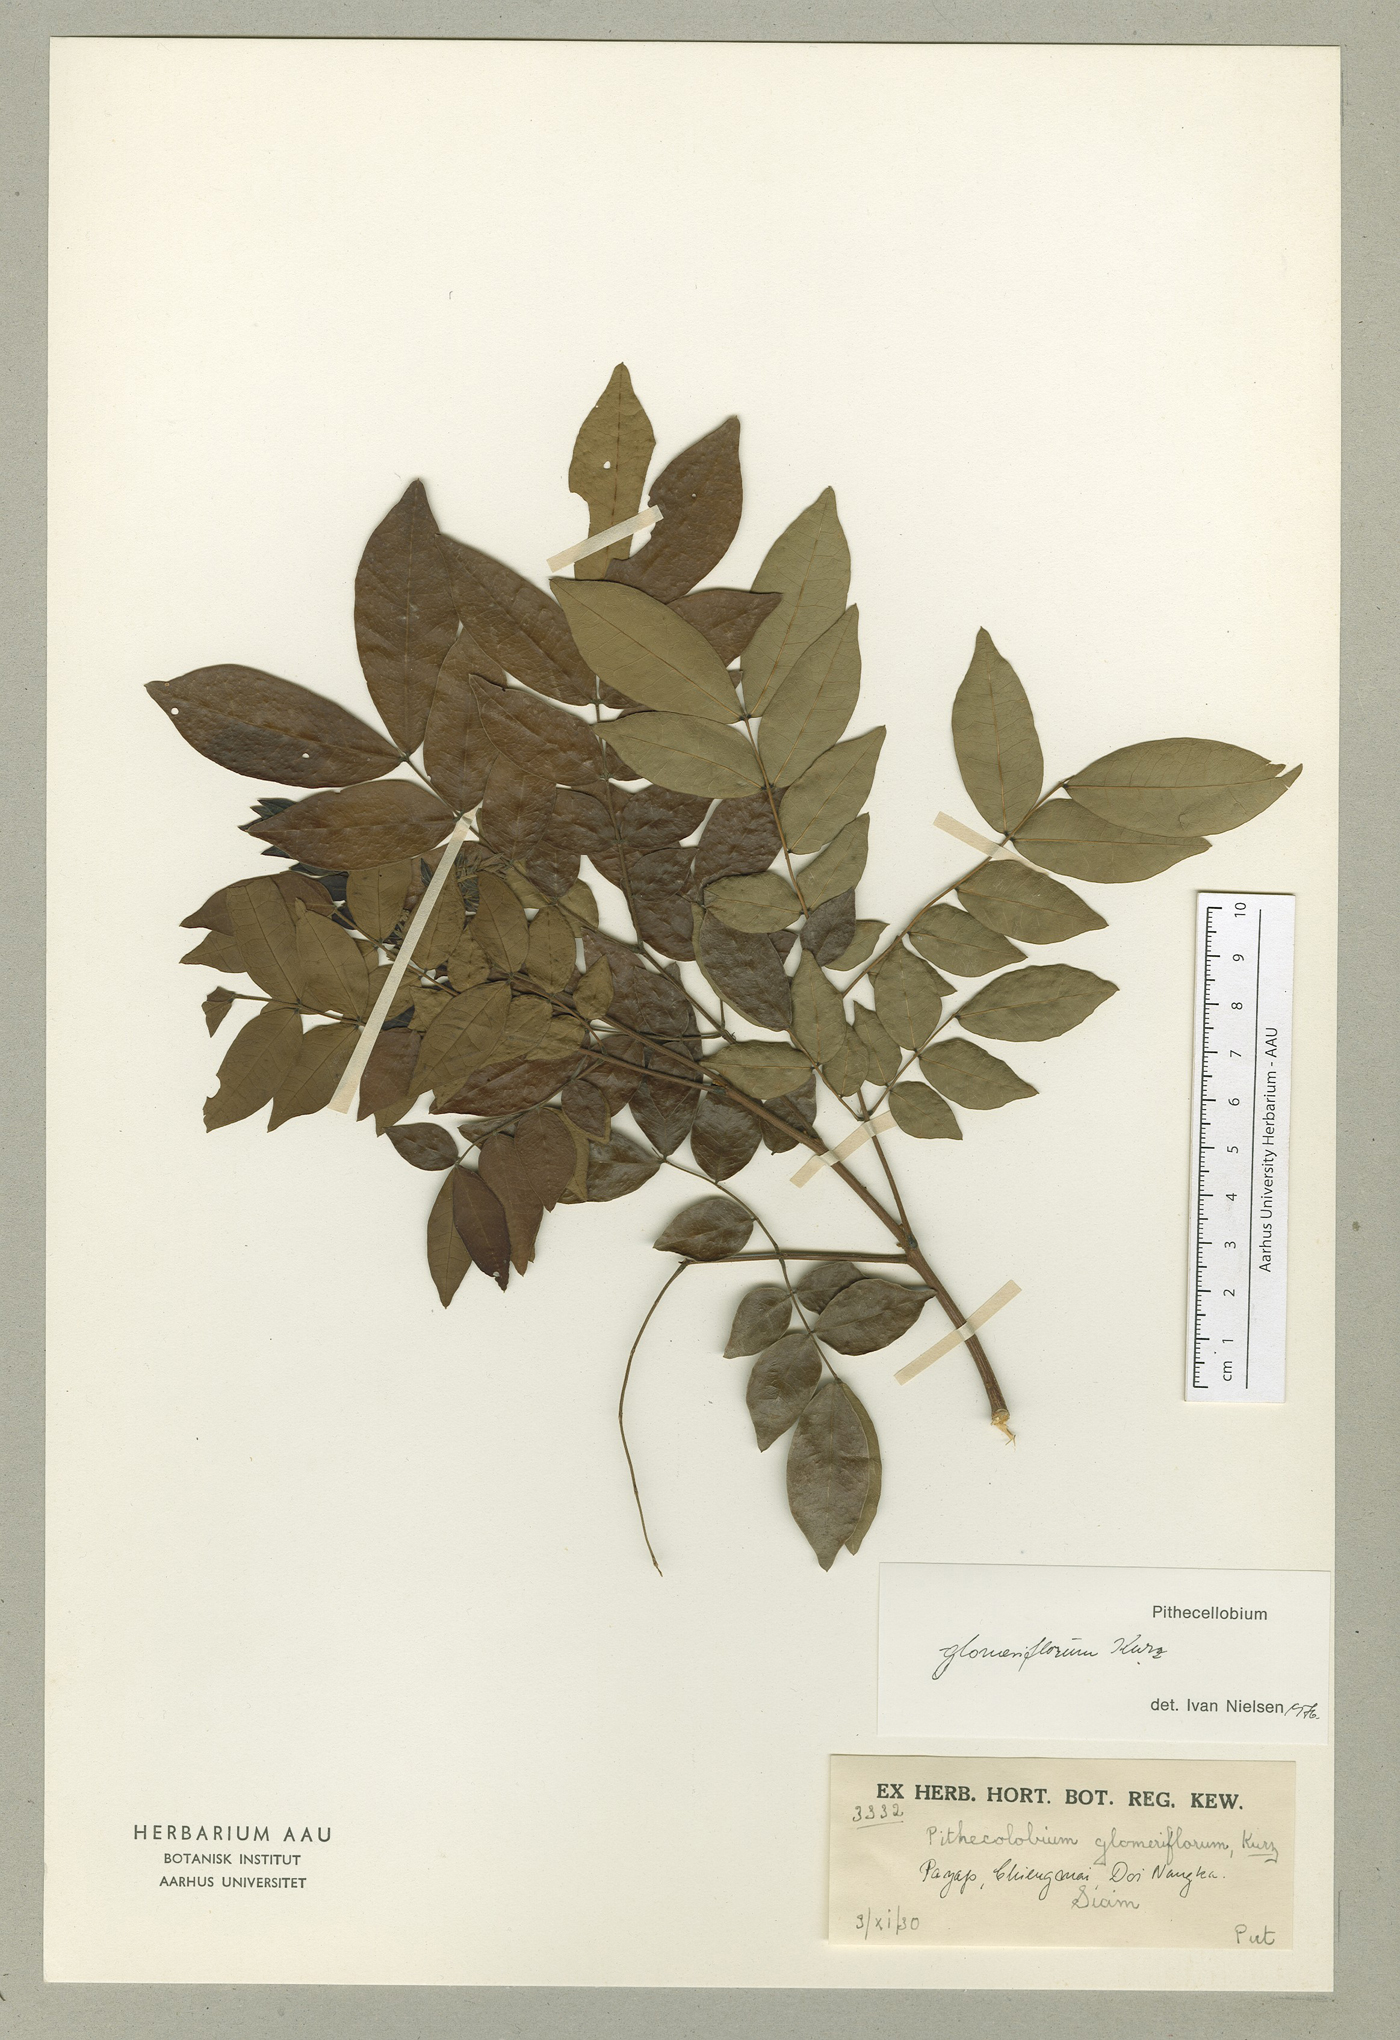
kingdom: Plantae
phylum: Tracheophyta
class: Magnoliopsida
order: Fabales
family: Fabaceae
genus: Archidendron
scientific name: Archidendron glomeriflorum
